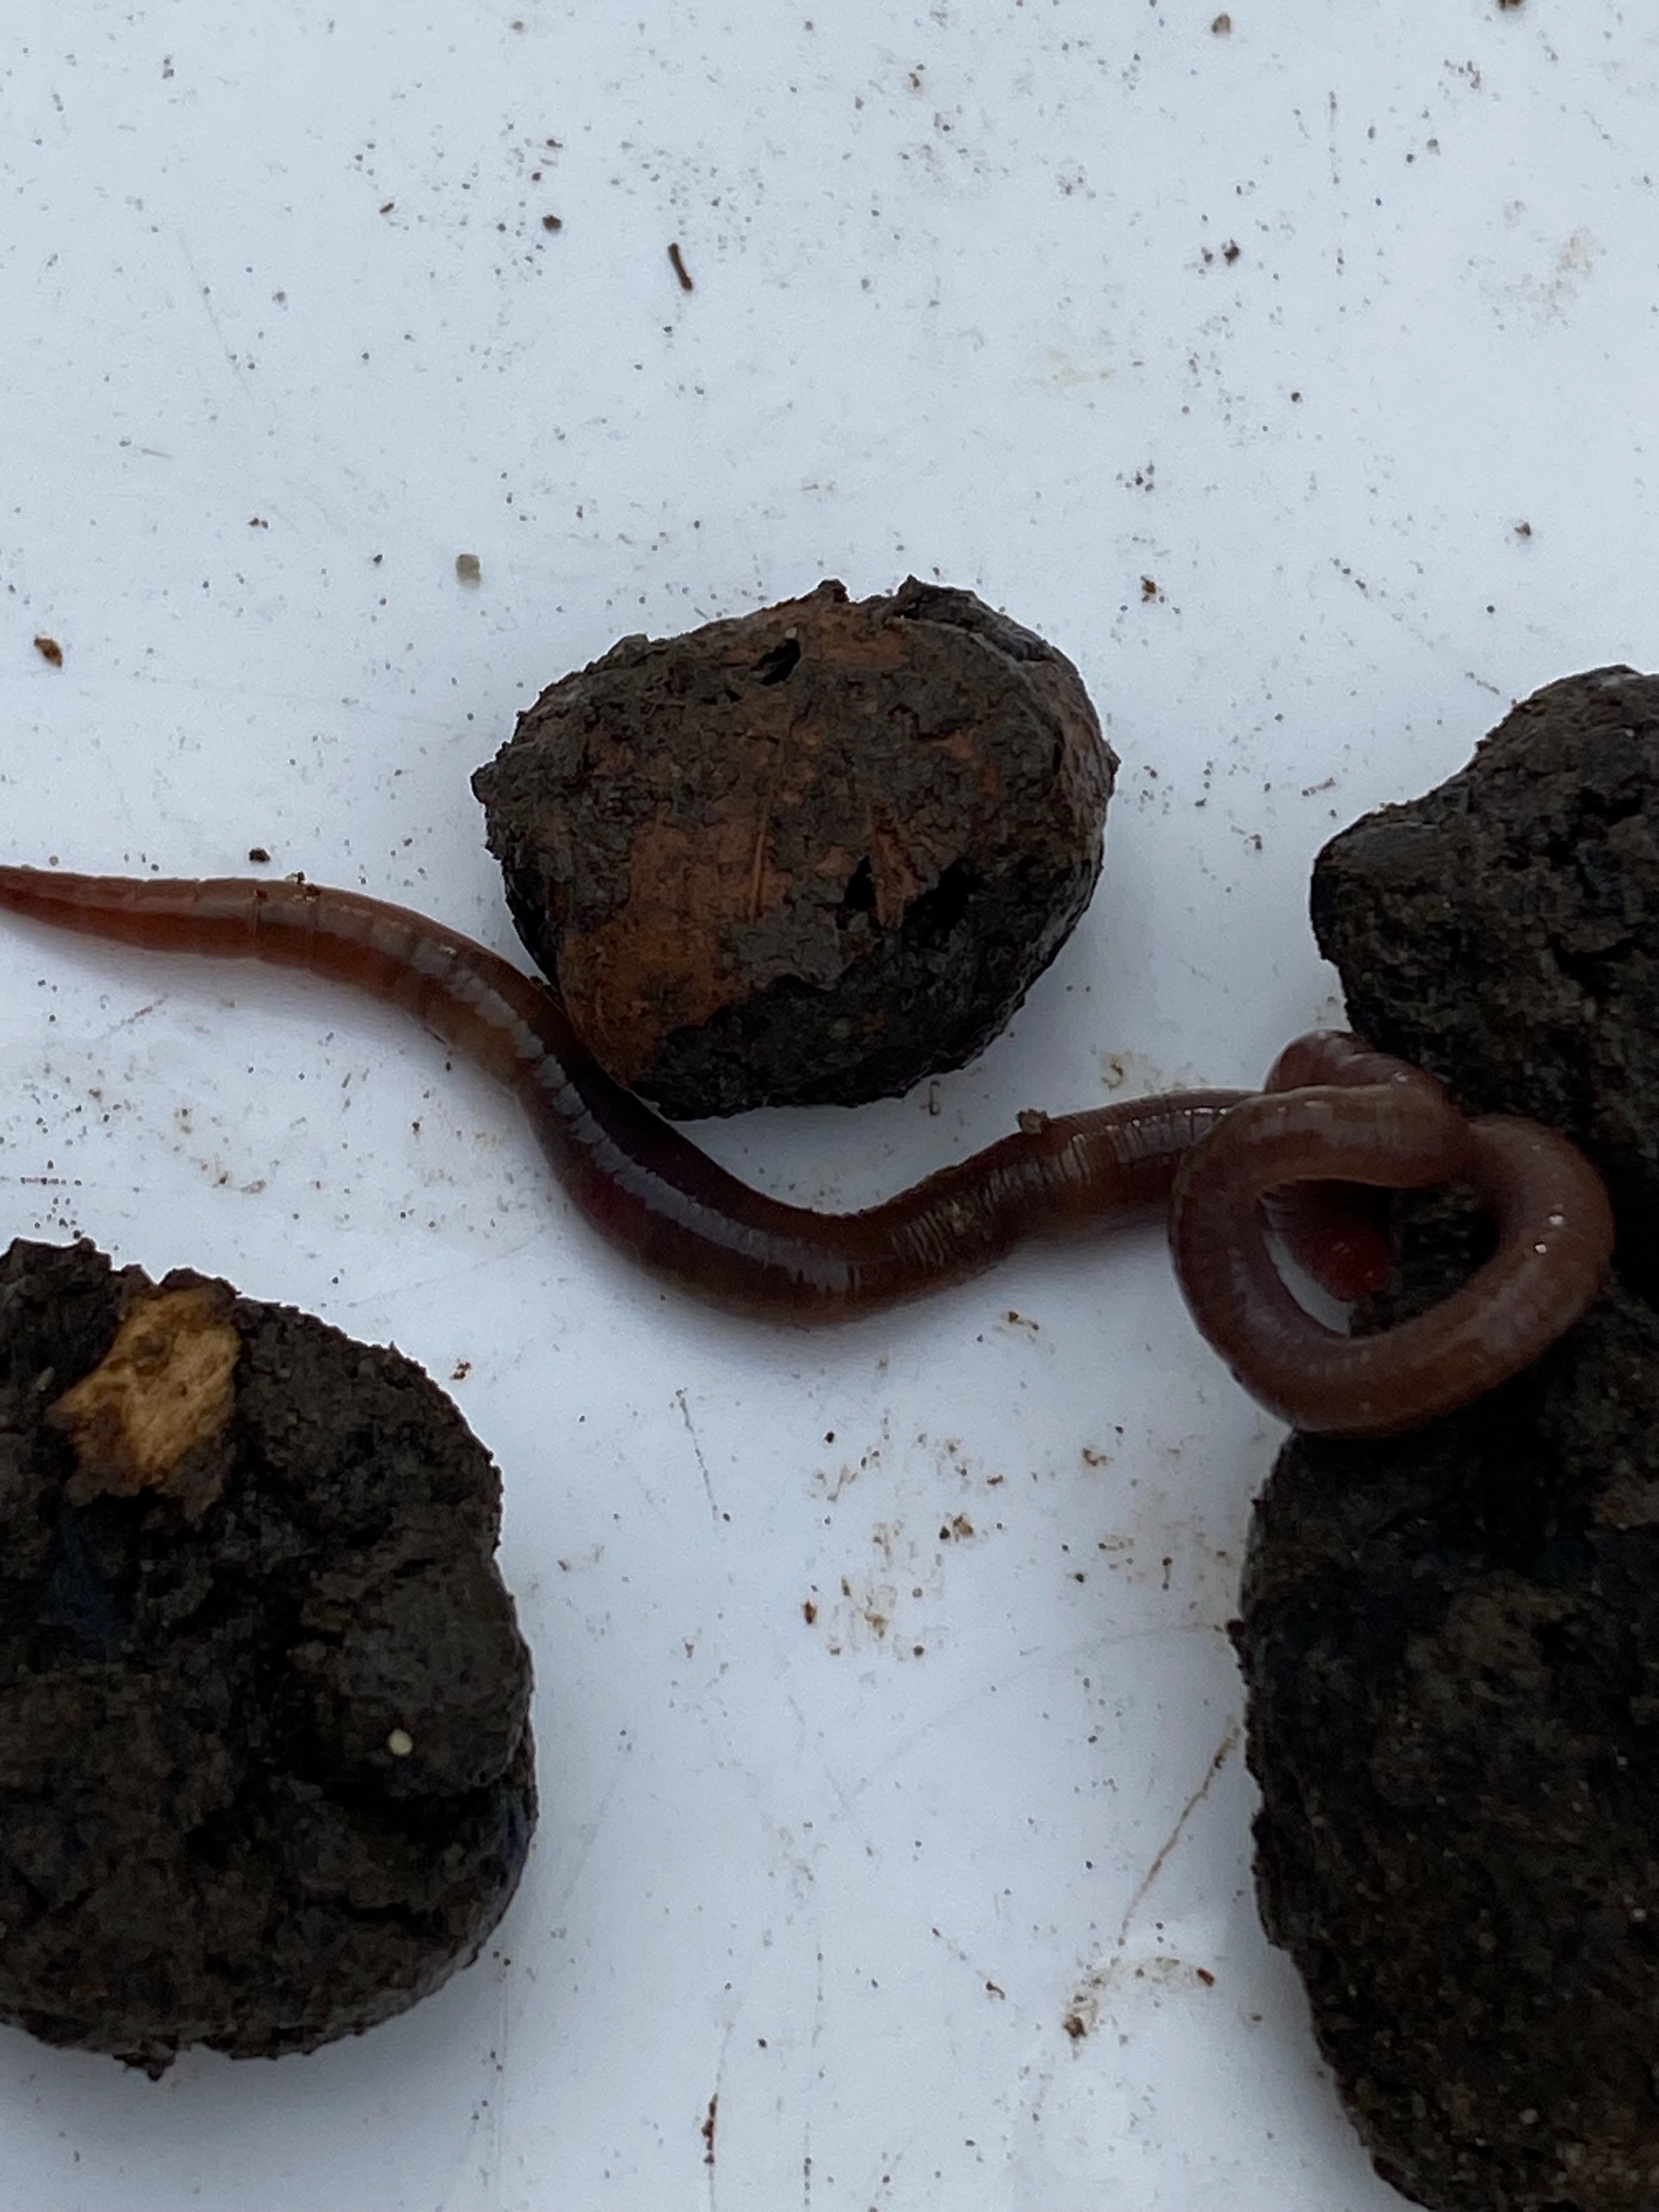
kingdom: Animalia
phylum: Annelida
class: Clitellata
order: Crassiclitellata
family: Lumbricidae
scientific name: Lumbricidae
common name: Regnorme
